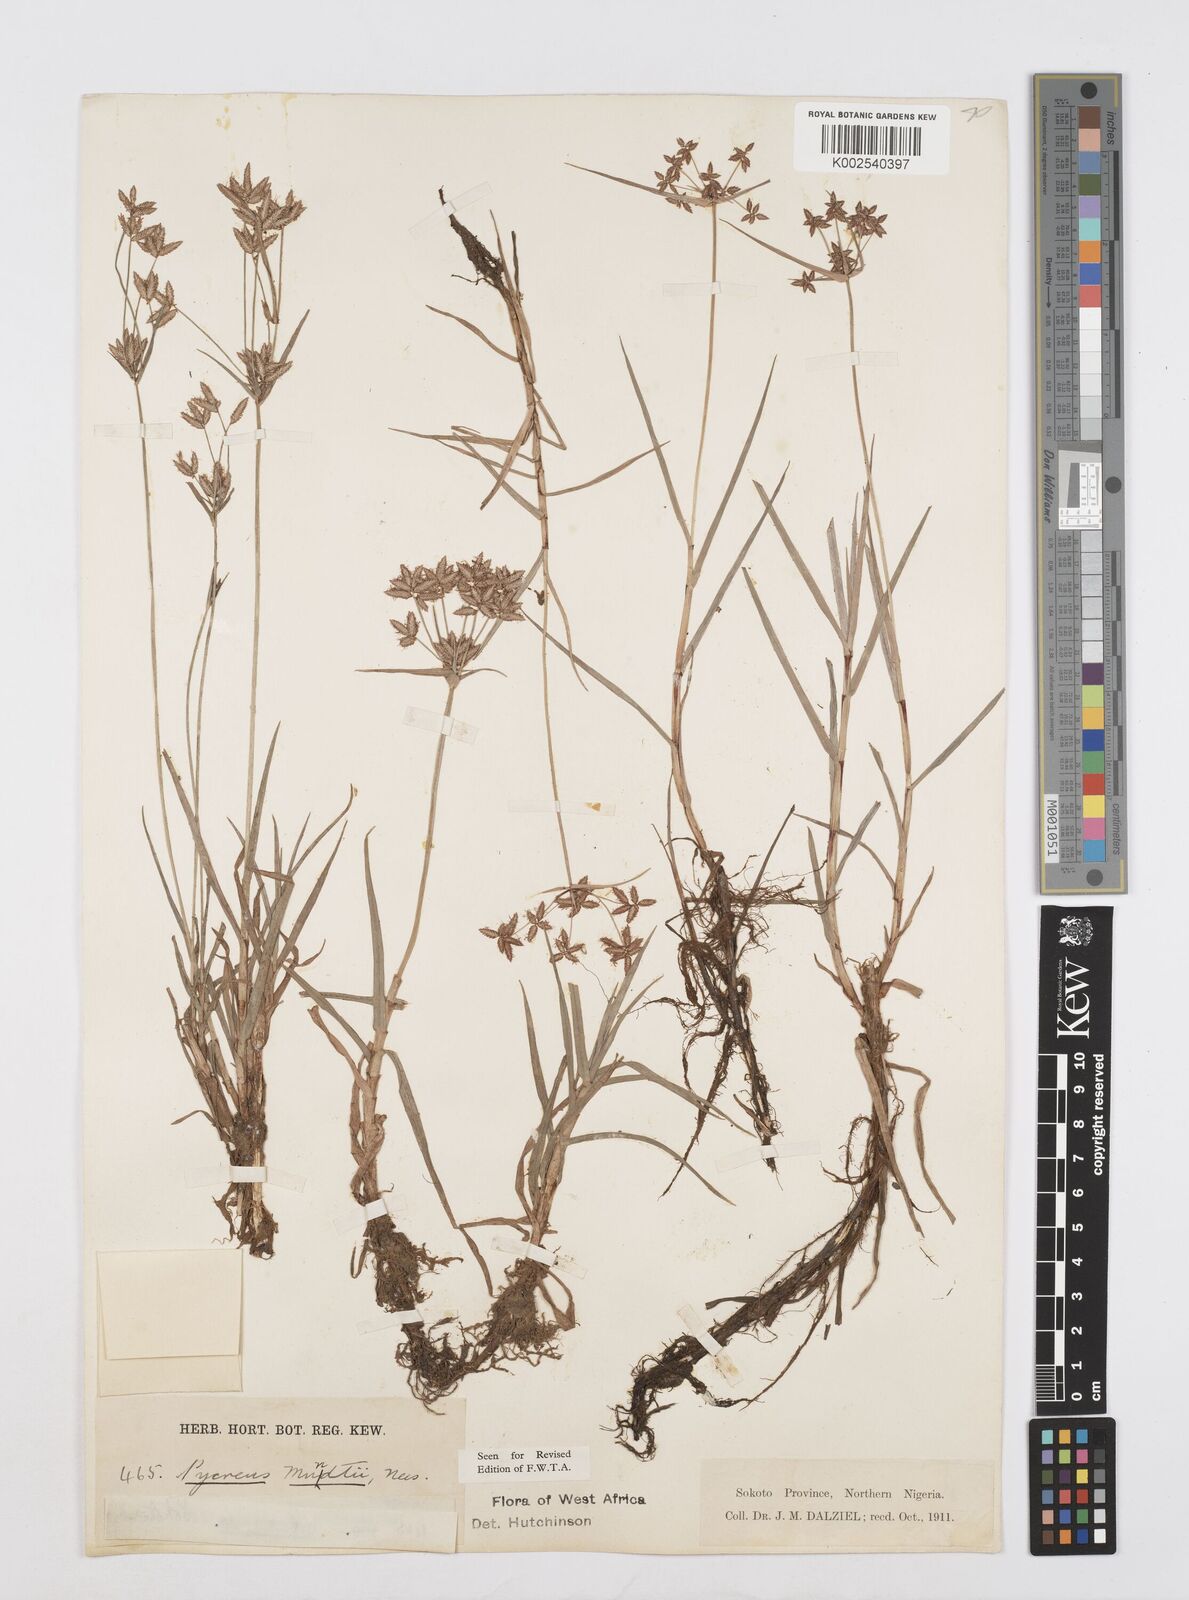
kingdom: Plantae
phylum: Tracheophyta
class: Liliopsida
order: Poales
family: Cyperaceae
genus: Cyperus
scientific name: Cyperus mundii
